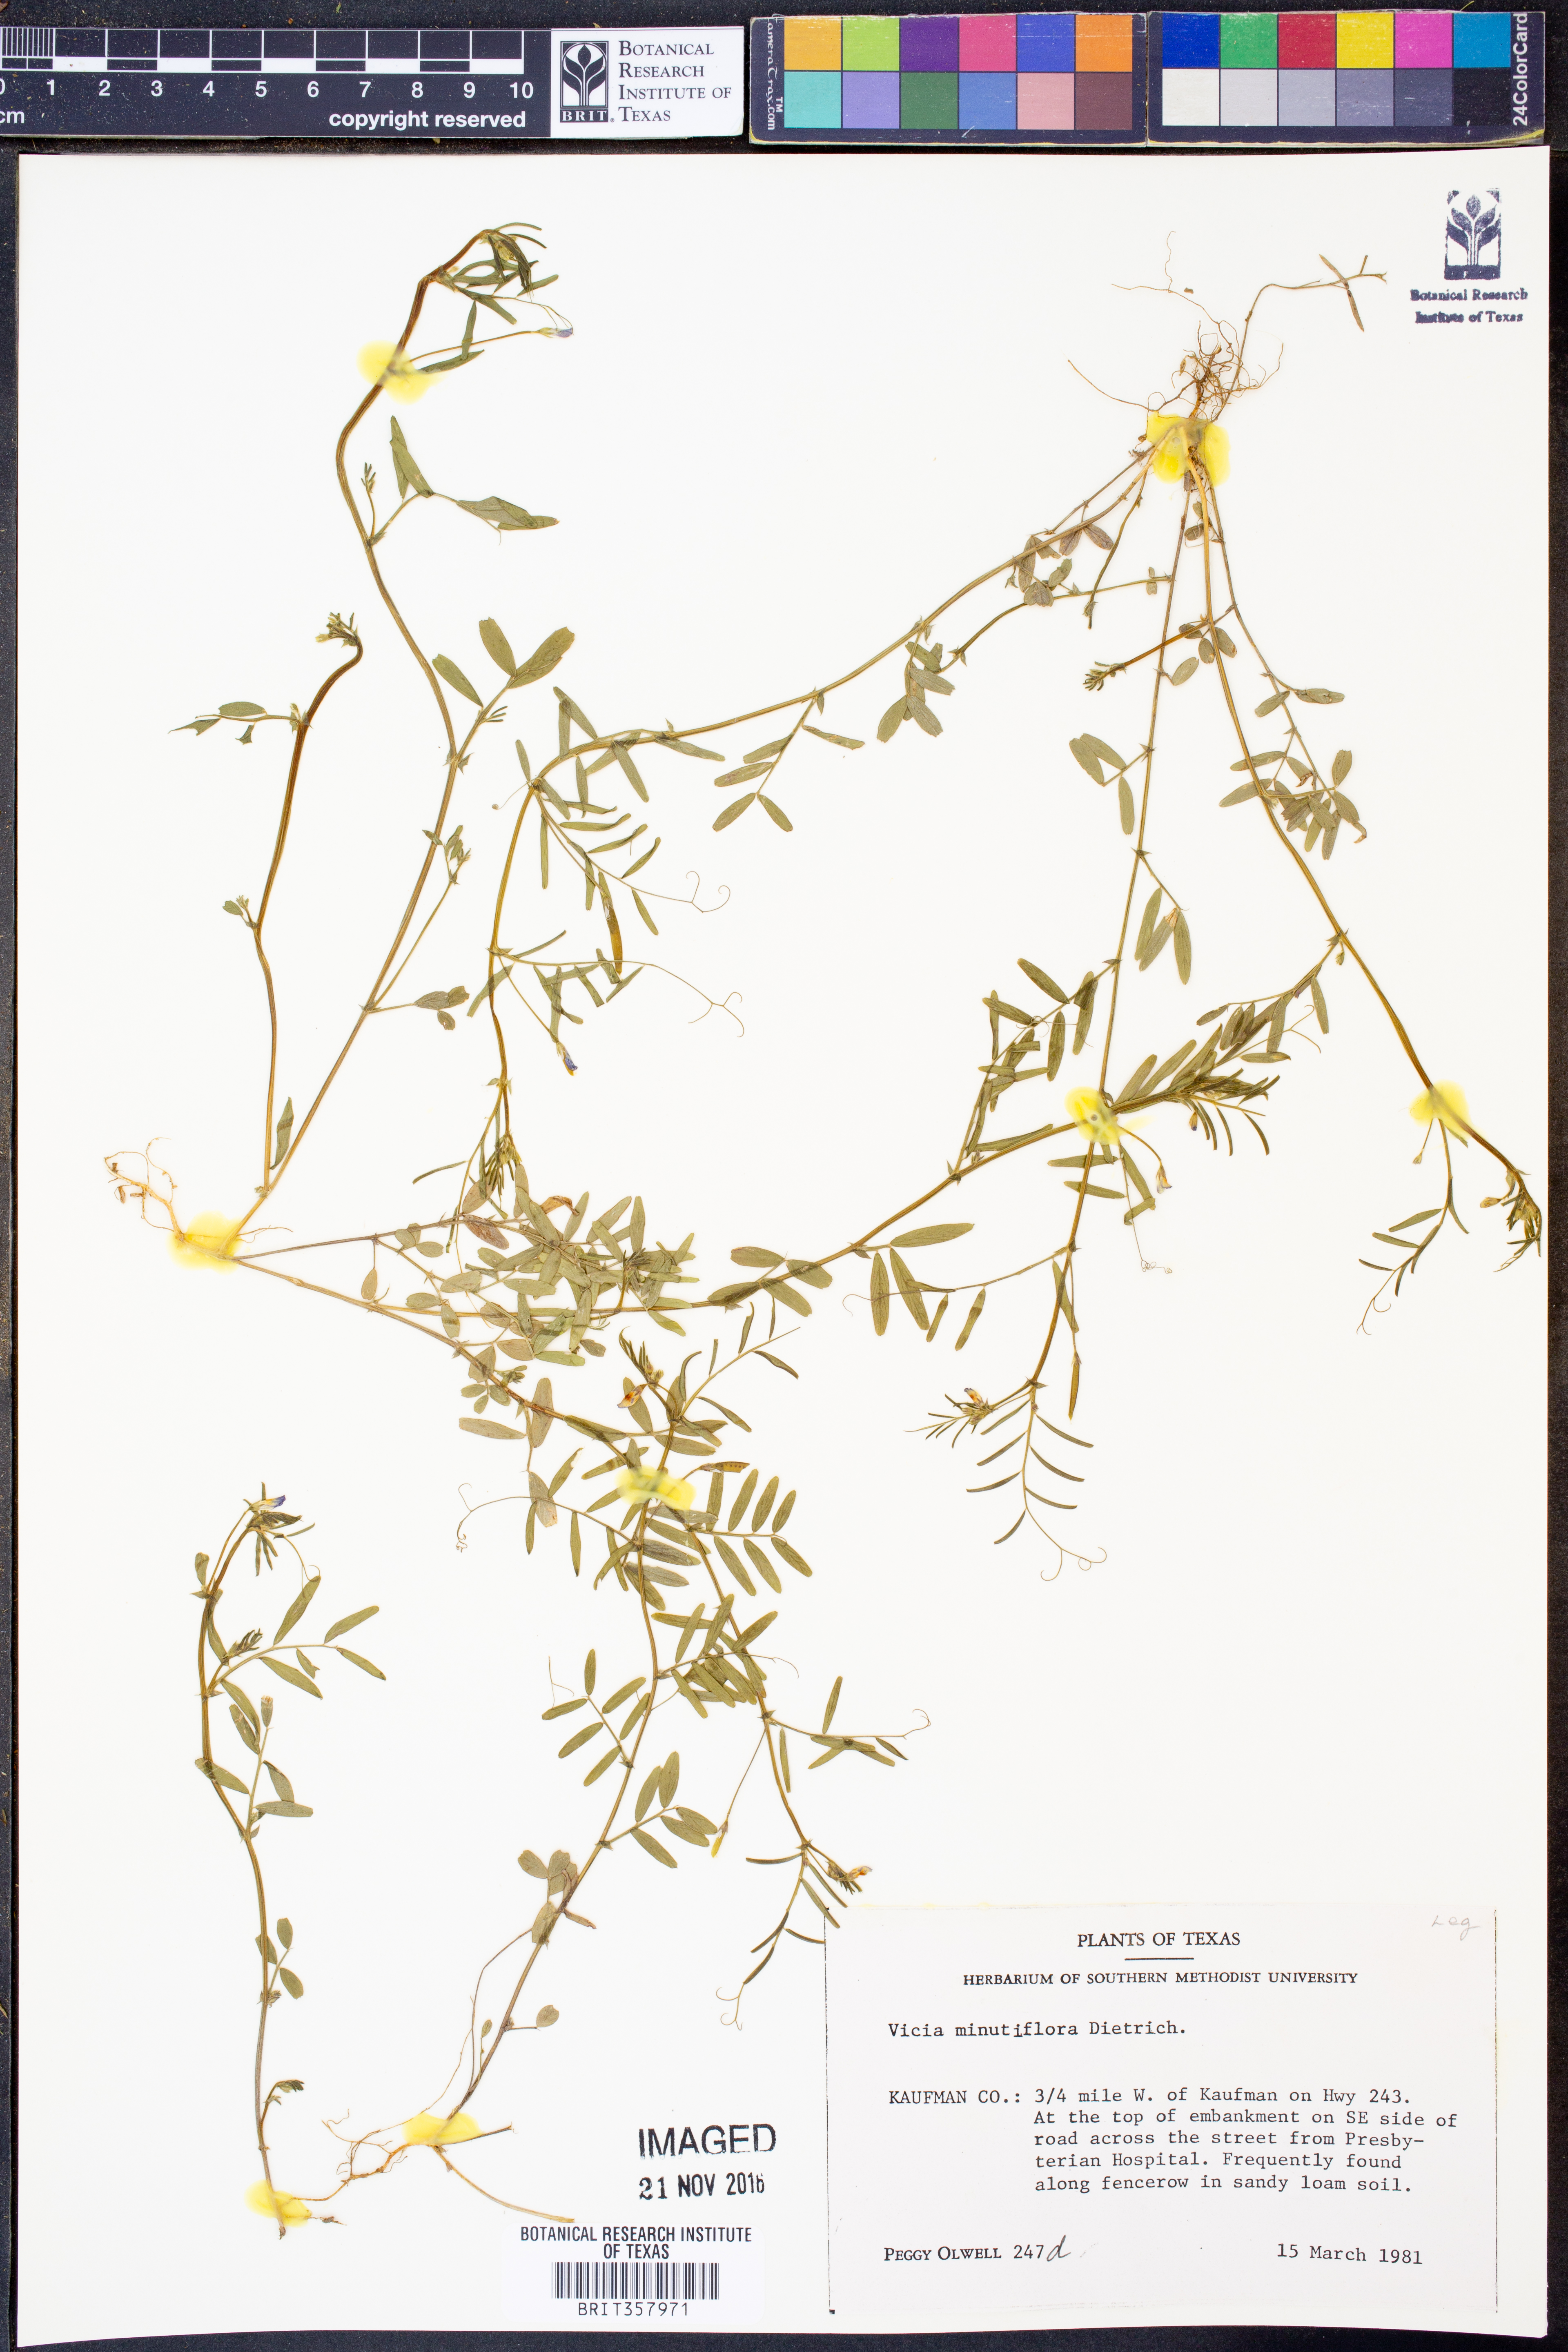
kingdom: Plantae
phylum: Tracheophyta
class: Magnoliopsida
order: Fabales
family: Fabaceae
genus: Vicia
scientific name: Vicia minutiflora
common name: Pygmy-flower vetch
